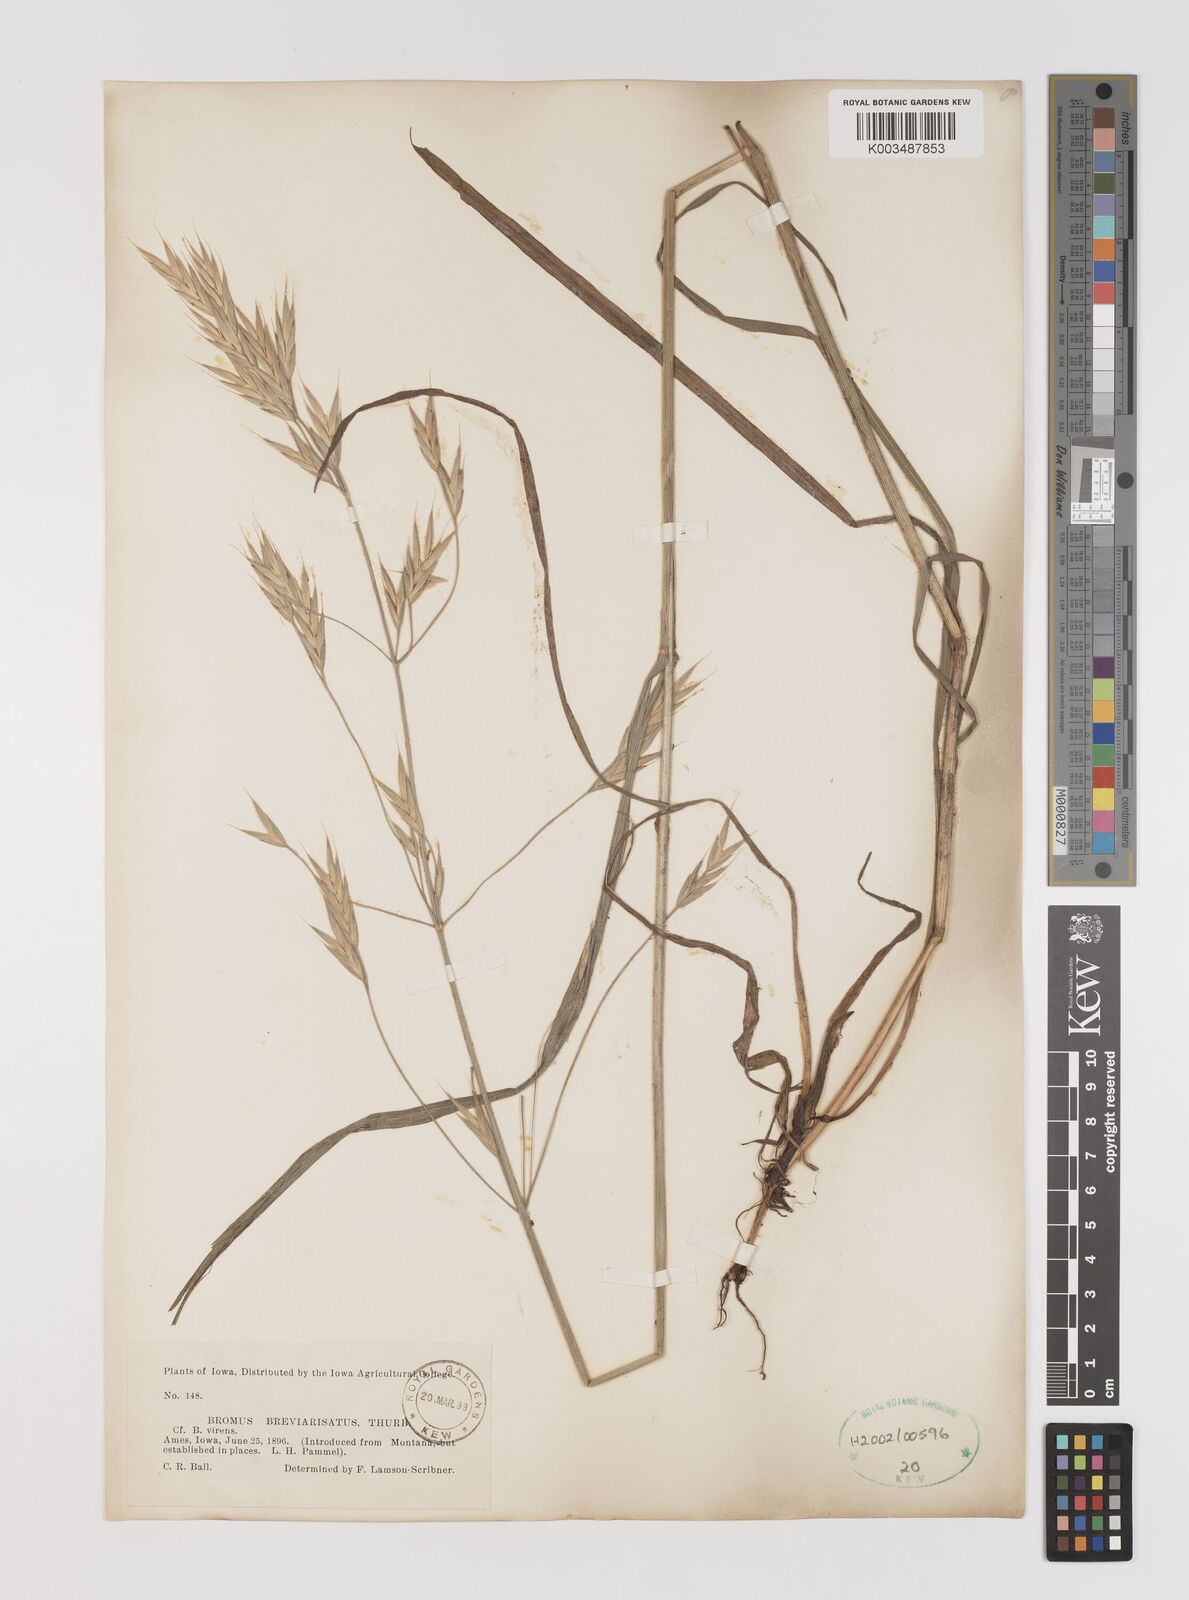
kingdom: Plantae
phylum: Tracheophyta
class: Liliopsida
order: Poales
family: Poaceae
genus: Bromus
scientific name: Bromus catharticus
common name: Rescuegrass
